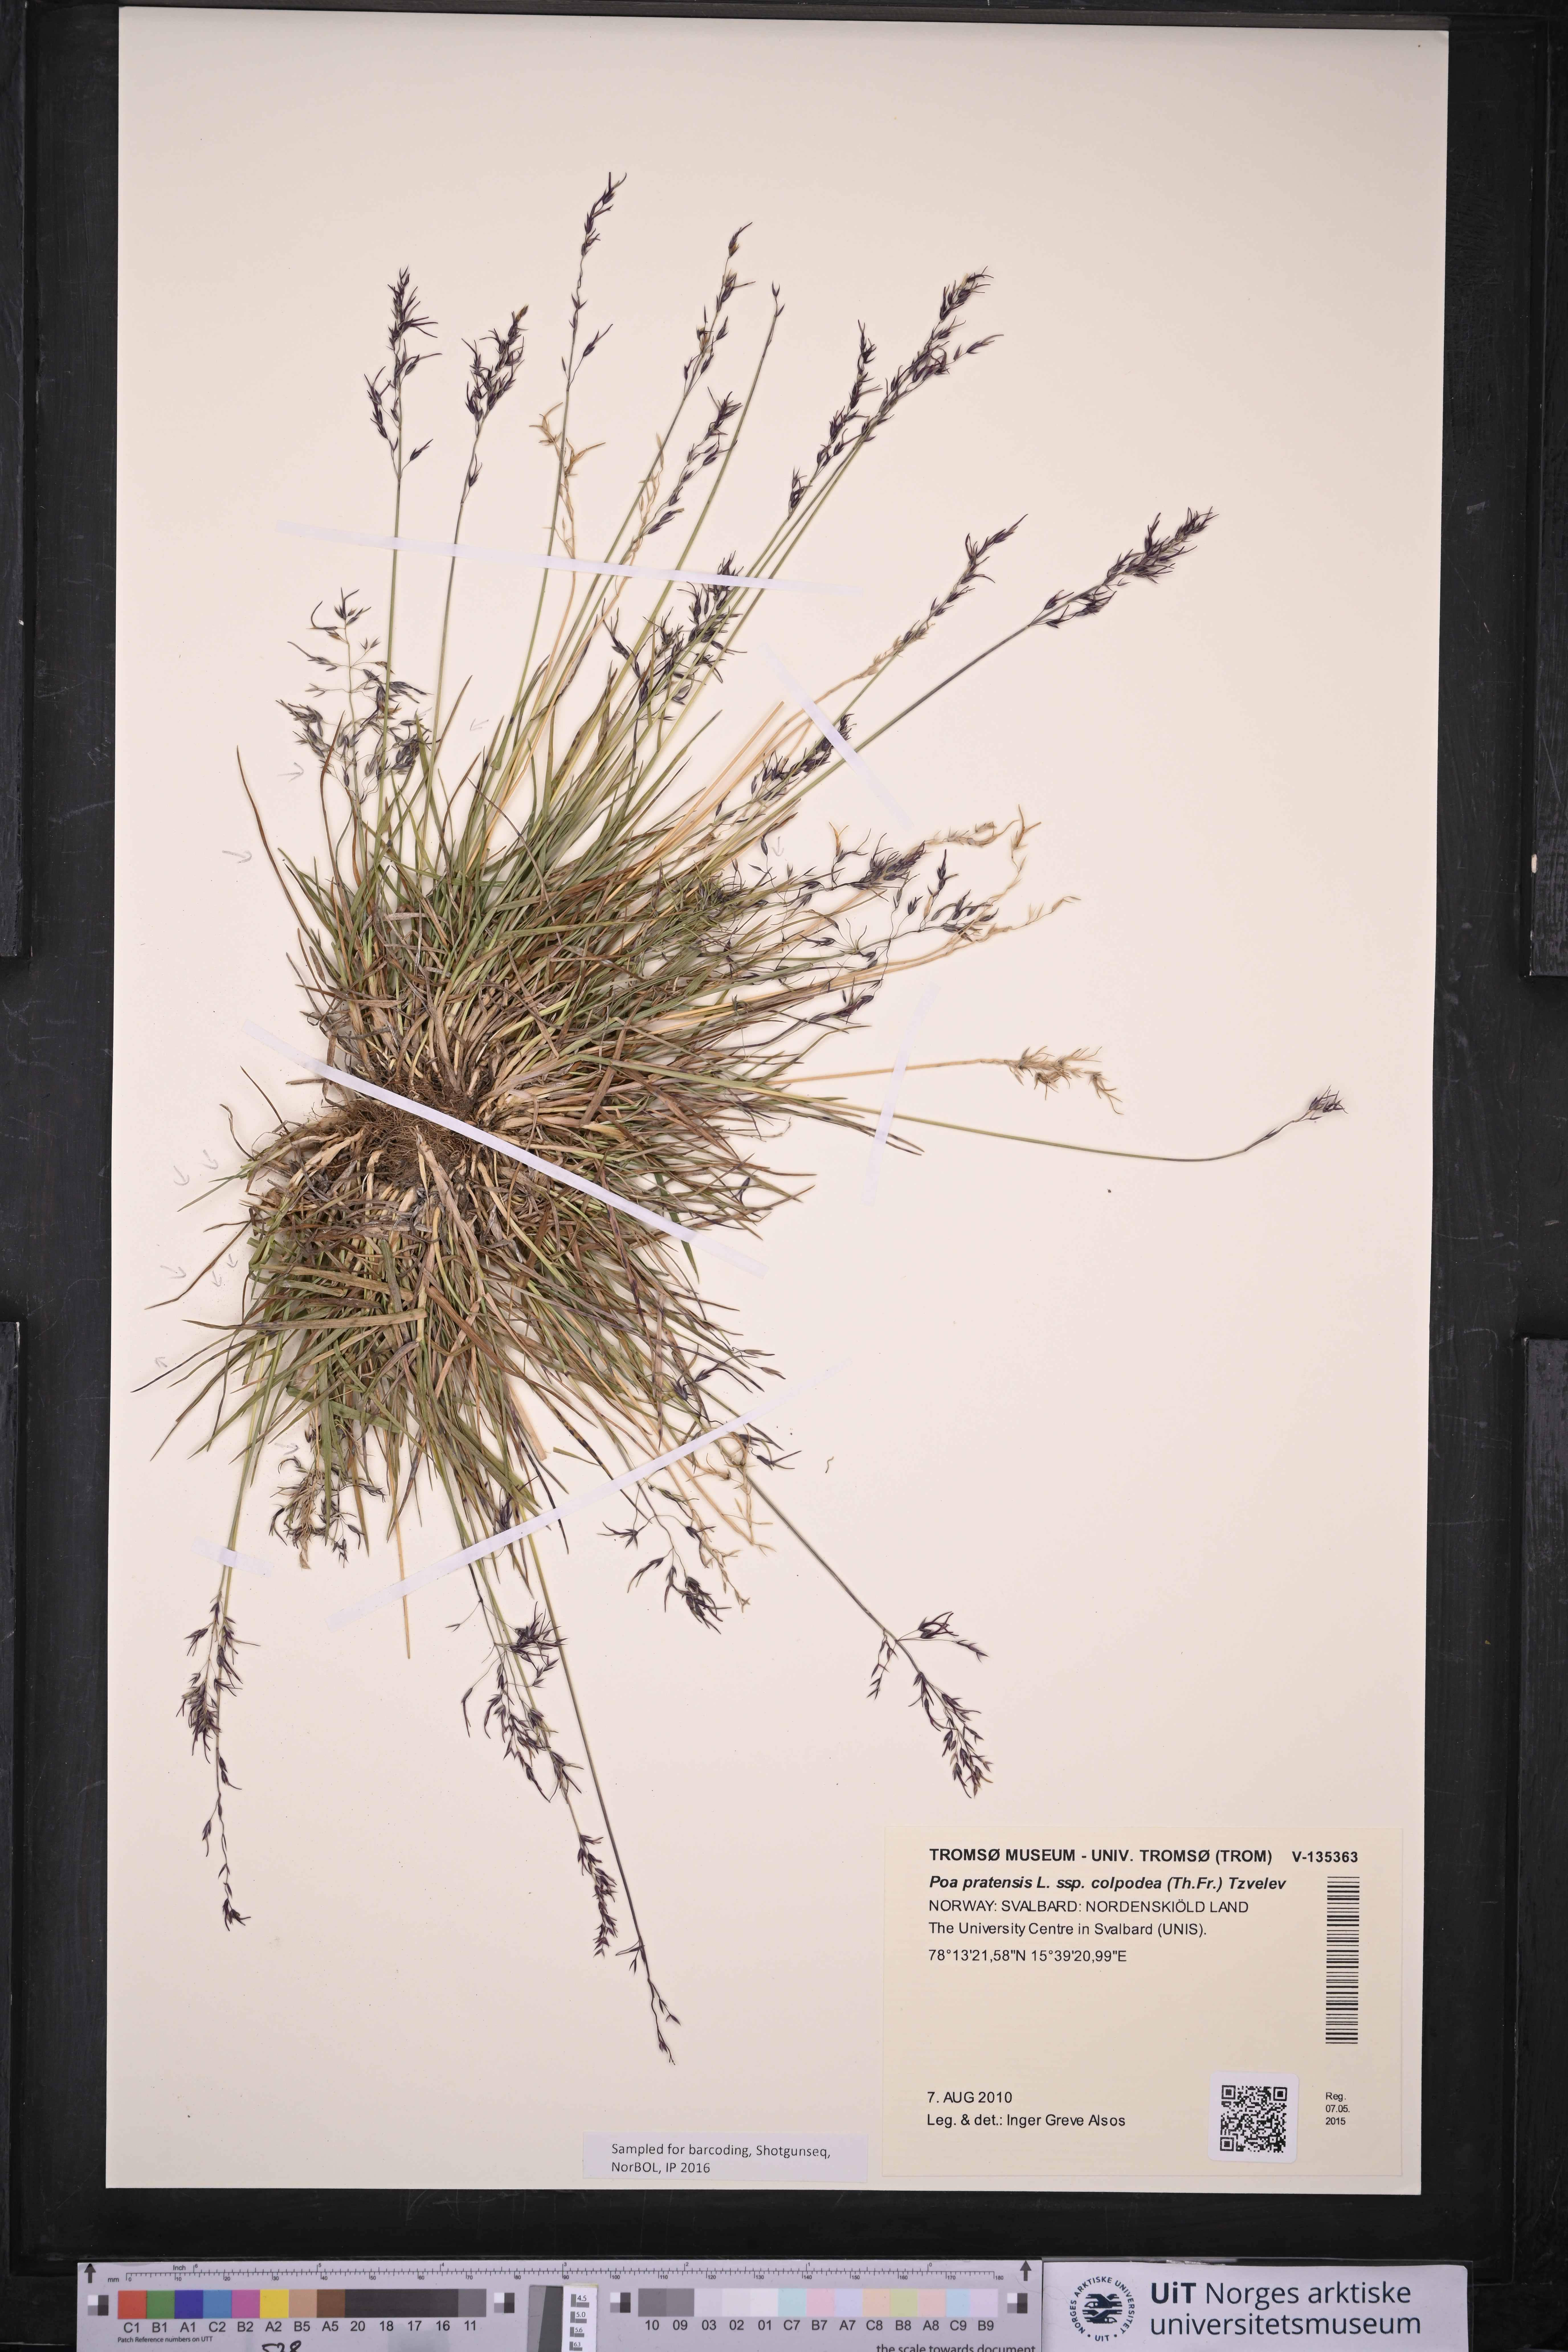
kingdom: Plantae
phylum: Tracheophyta
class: Liliopsida
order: Poales
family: Poaceae
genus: Poa
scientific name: Poa colpodea
